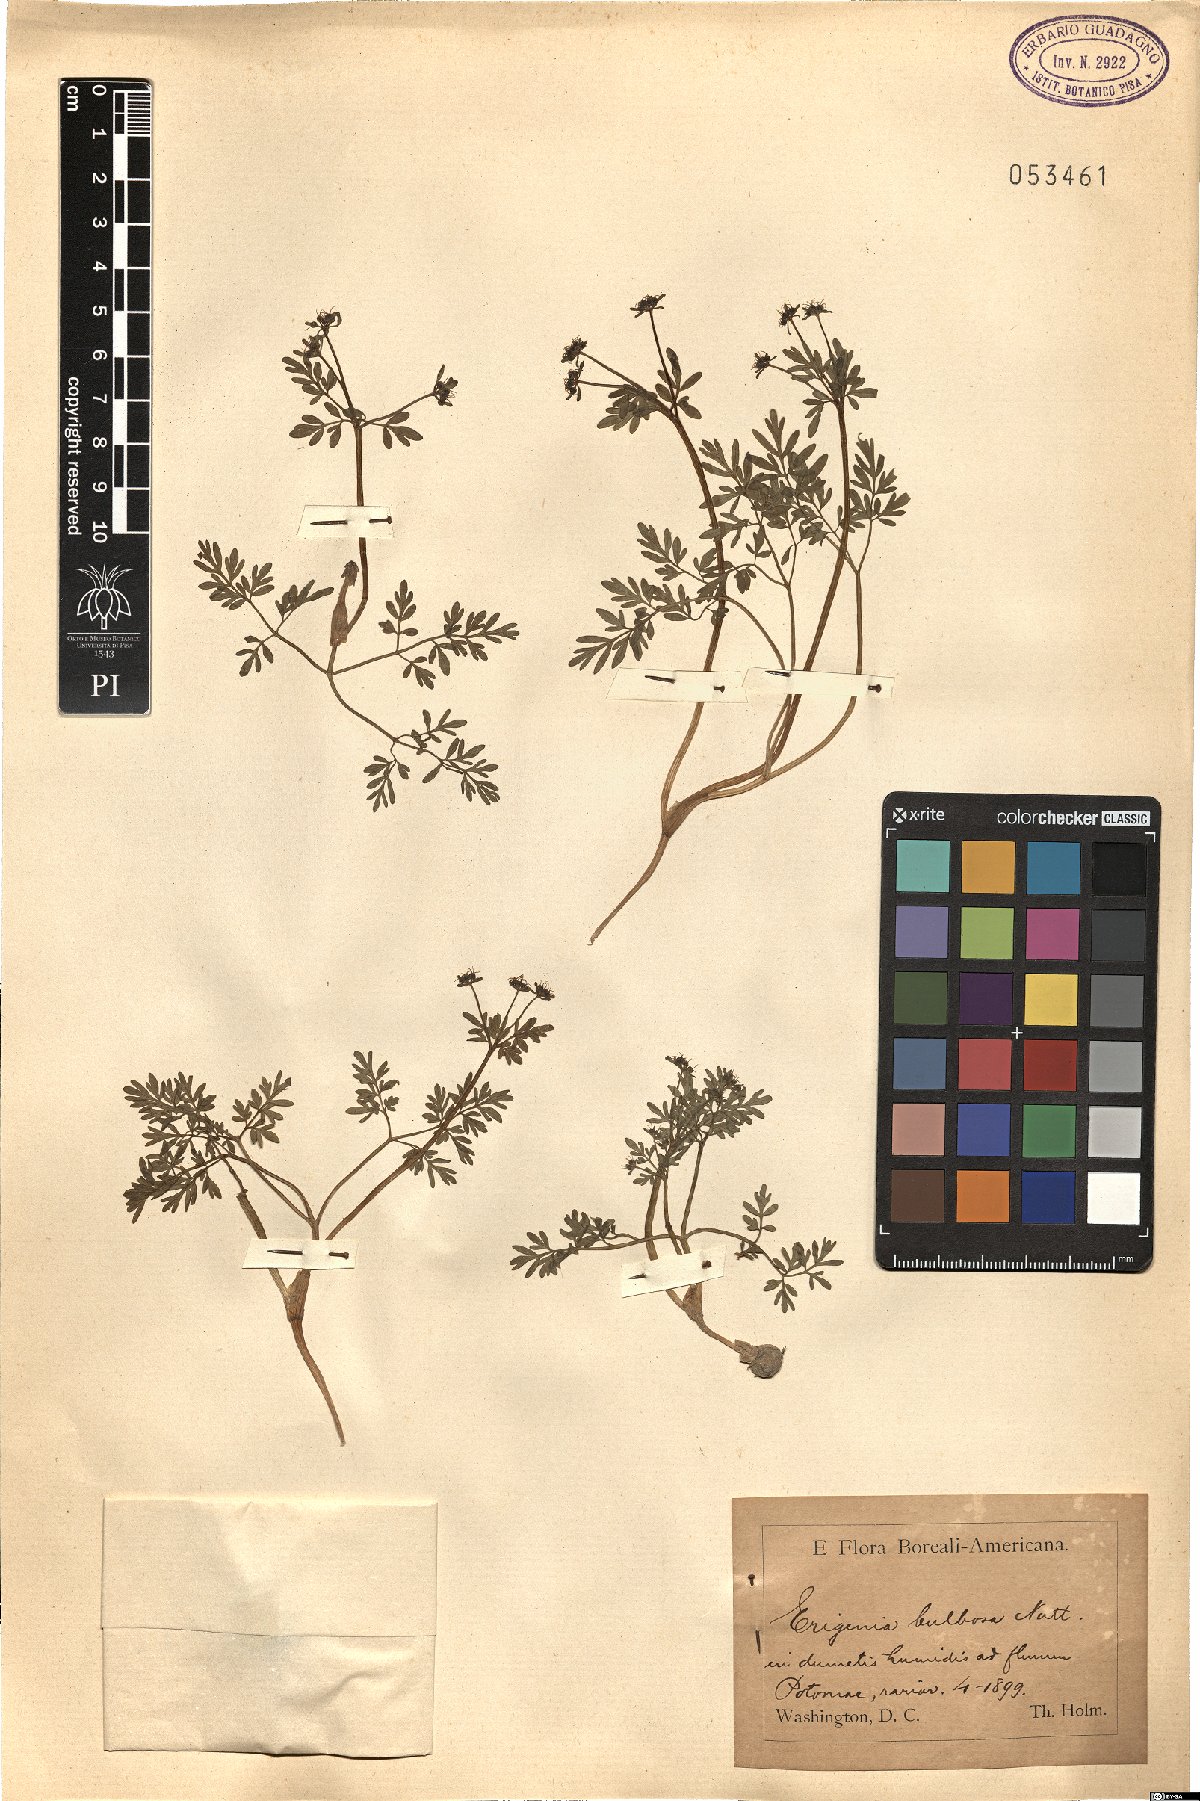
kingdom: Plantae
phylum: Tracheophyta
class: Magnoliopsida
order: Apiales
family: Apiaceae
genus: Erigenia
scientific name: Erigenia bulbosa
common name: Pepper-and-salt
